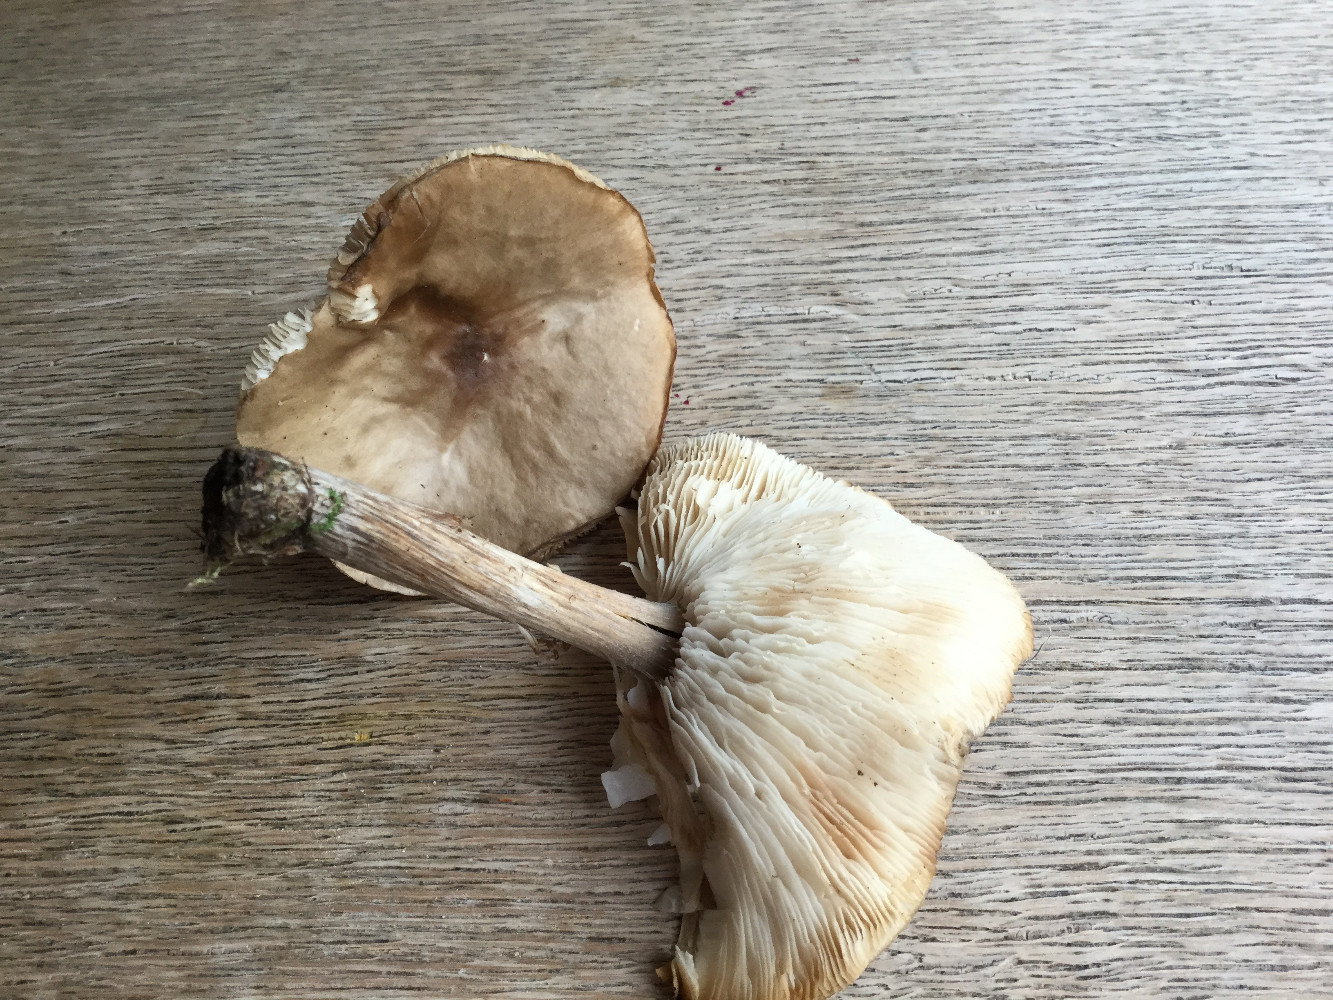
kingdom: Fungi
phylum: Basidiomycota
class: Agaricomycetes
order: Agaricales
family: Tricholomataceae
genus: Melanoleuca
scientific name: Melanoleuca polioleuca
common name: almindelig munkehat
